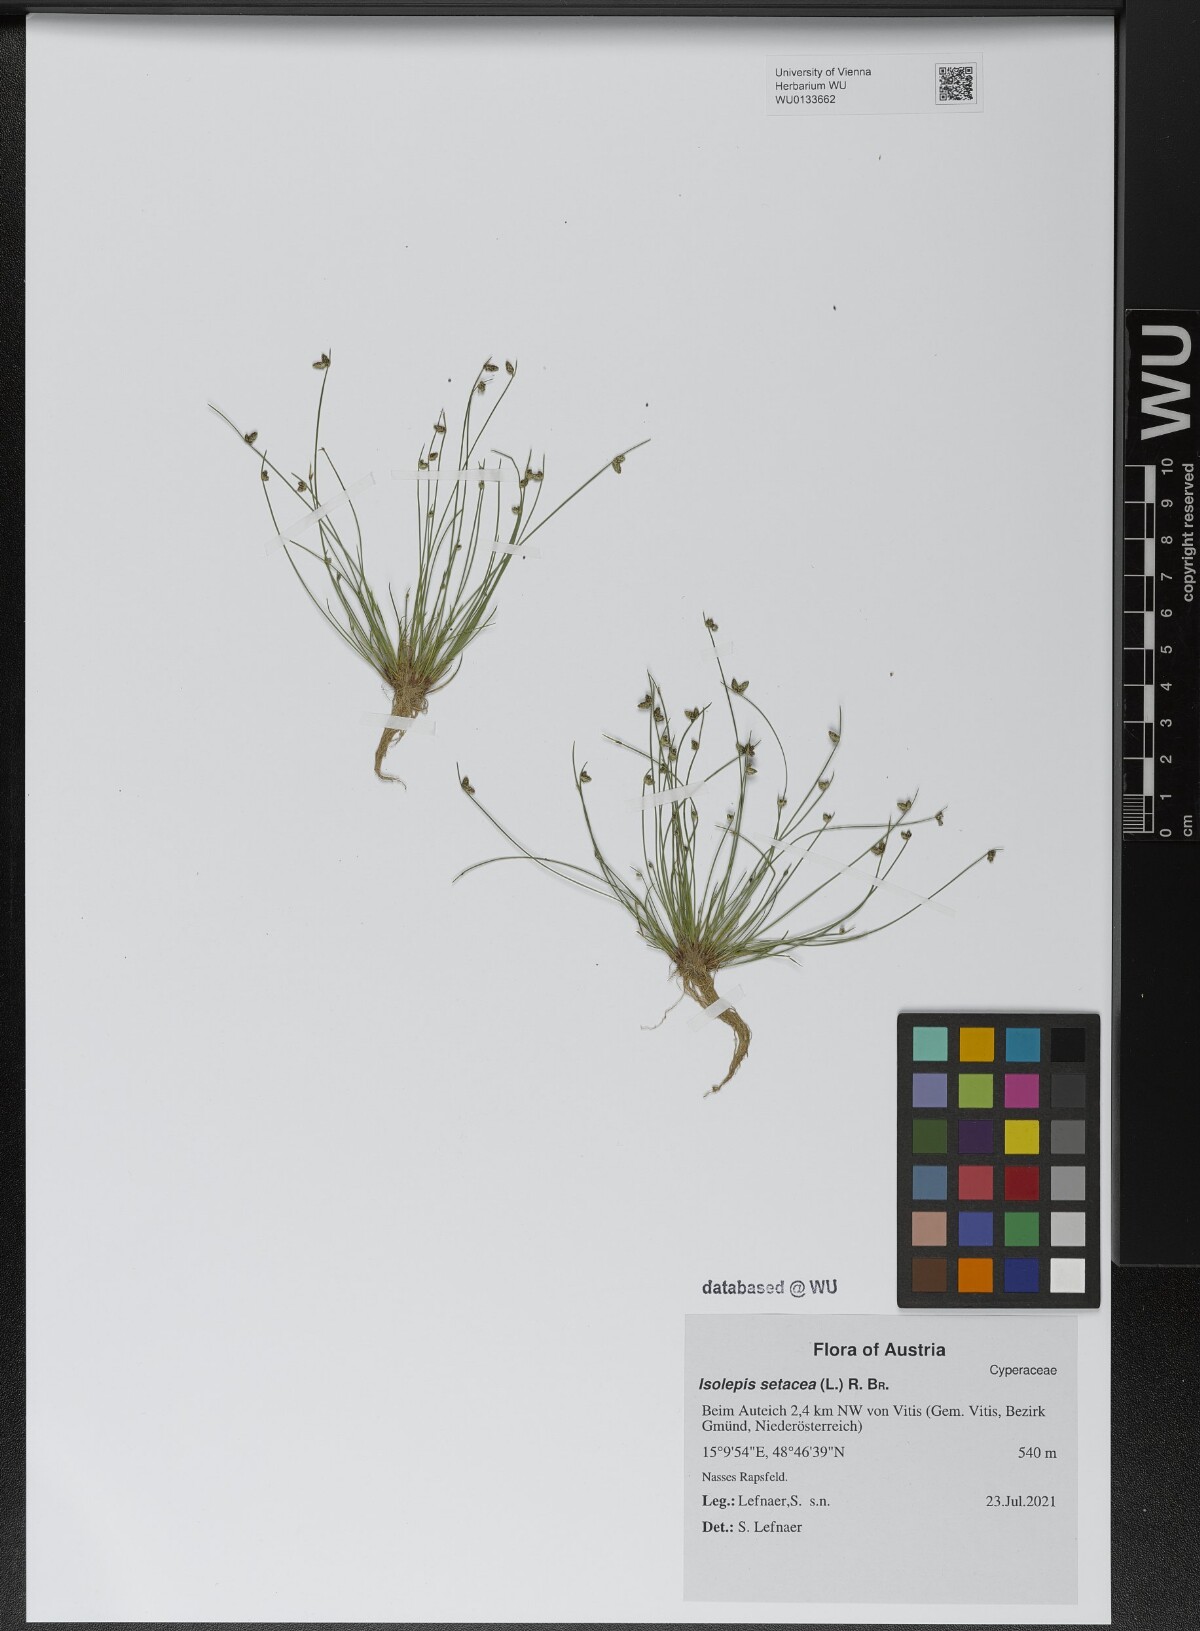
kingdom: Plantae
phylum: Tracheophyta
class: Liliopsida
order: Poales
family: Cyperaceae
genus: Isolepis
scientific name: Isolepis setacea
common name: Bristle club-rush
